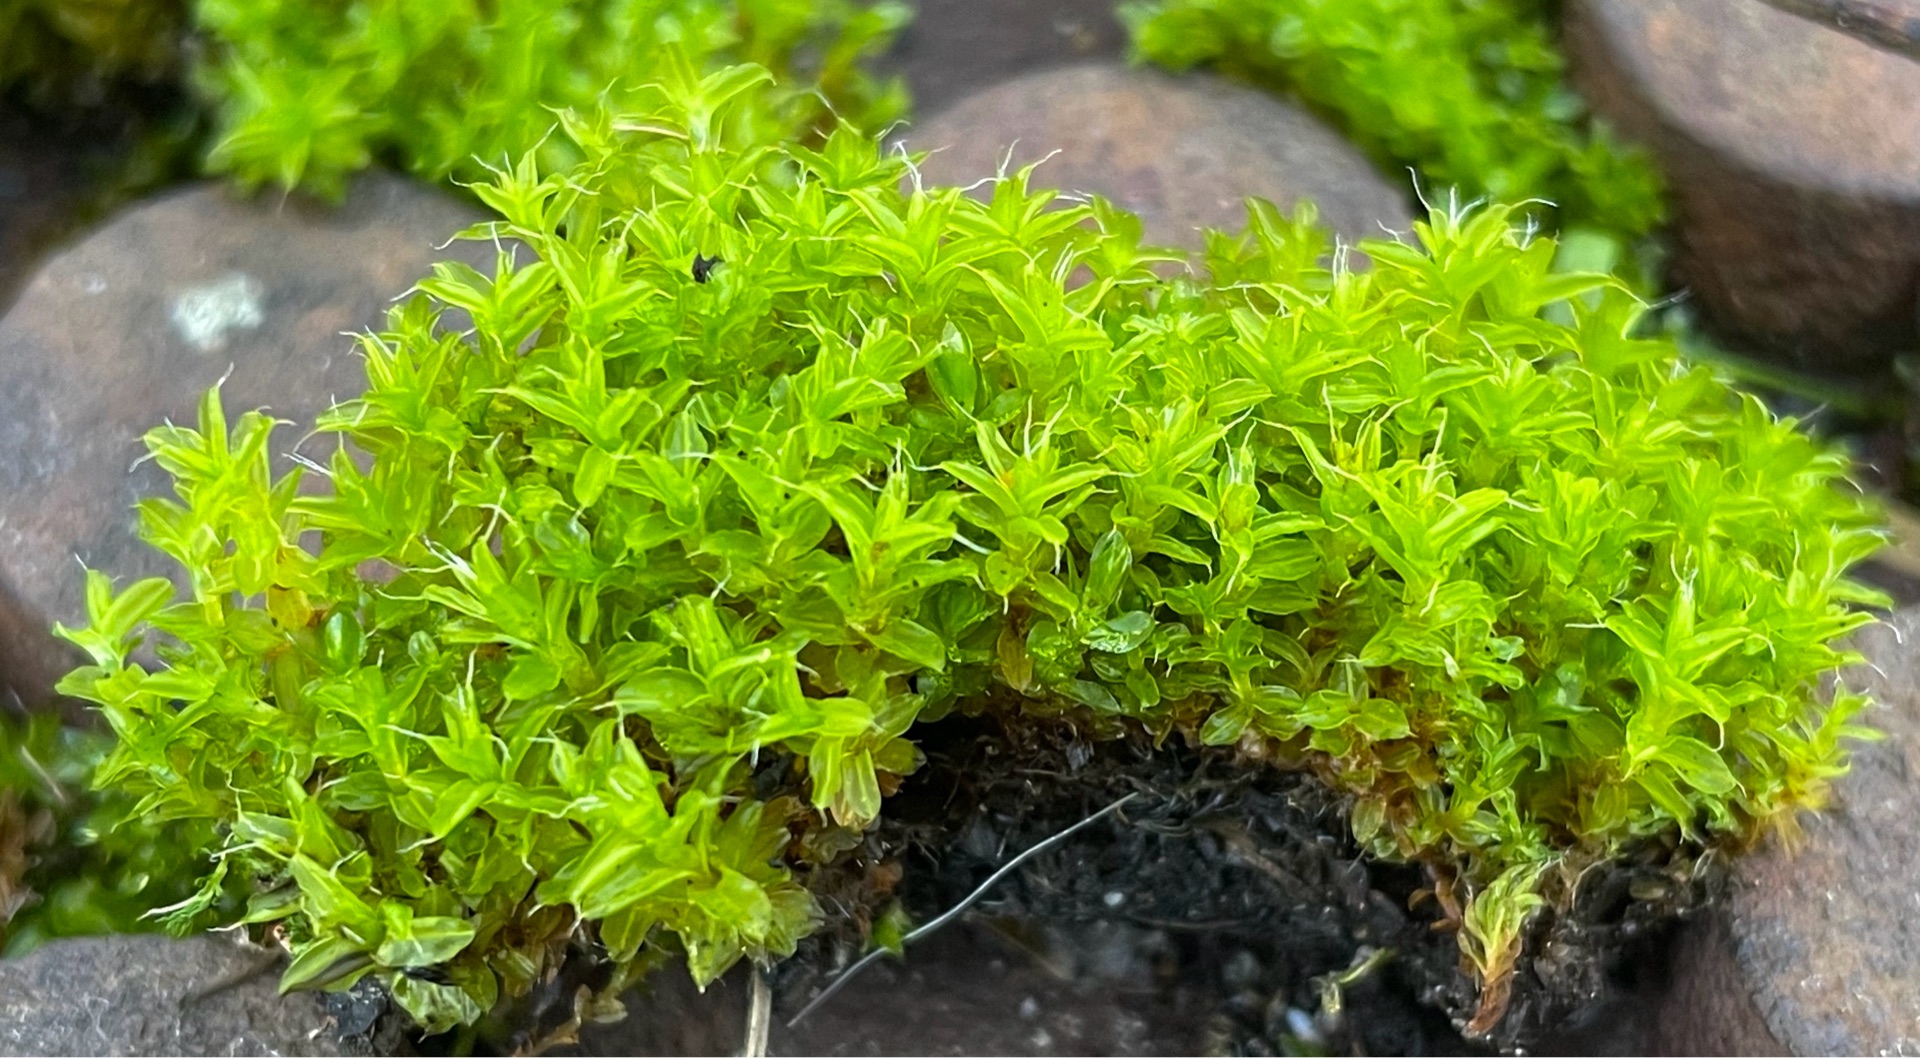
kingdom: Plantae
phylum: Bryophyta
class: Bryopsida
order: Pottiales
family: Pottiaceae
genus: Syntrichia
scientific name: Syntrichia ruralis
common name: Tag-hårstjerne
